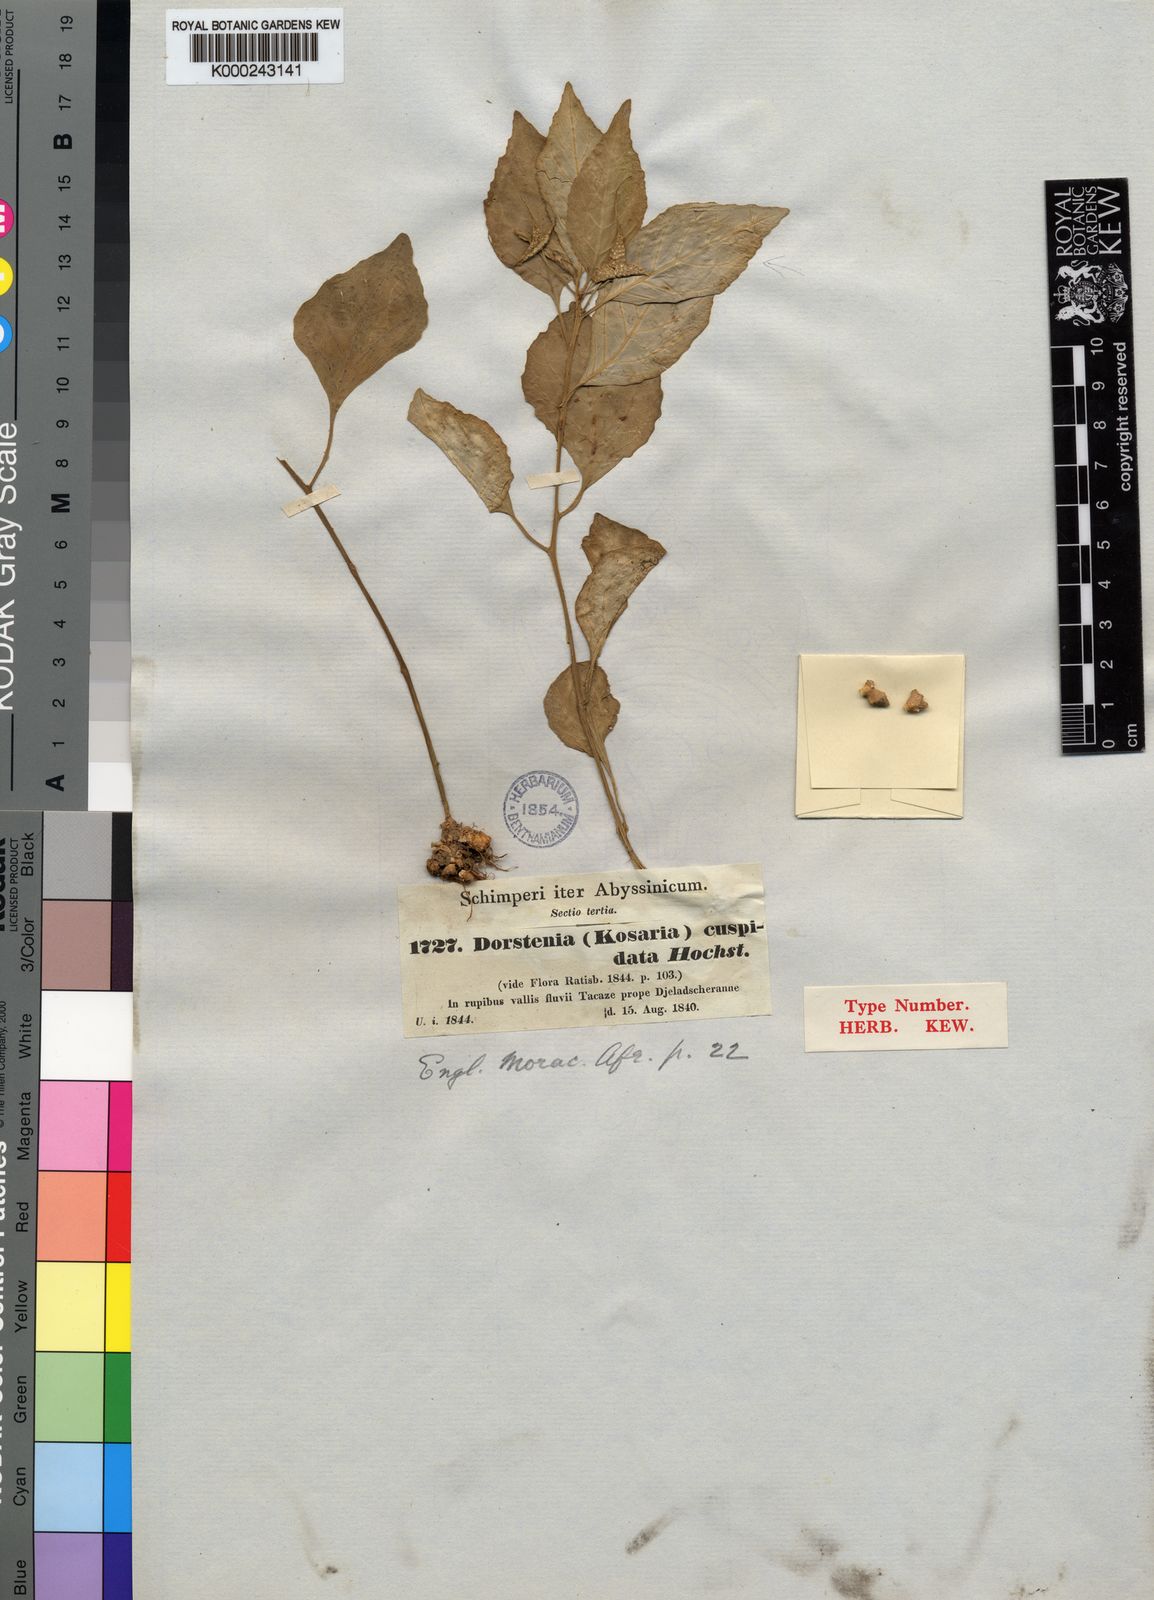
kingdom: Plantae
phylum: Tracheophyta
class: Magnoliopsida
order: Rosales
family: Moraceae
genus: Dorstenia
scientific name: Dorstenia cuspidata
